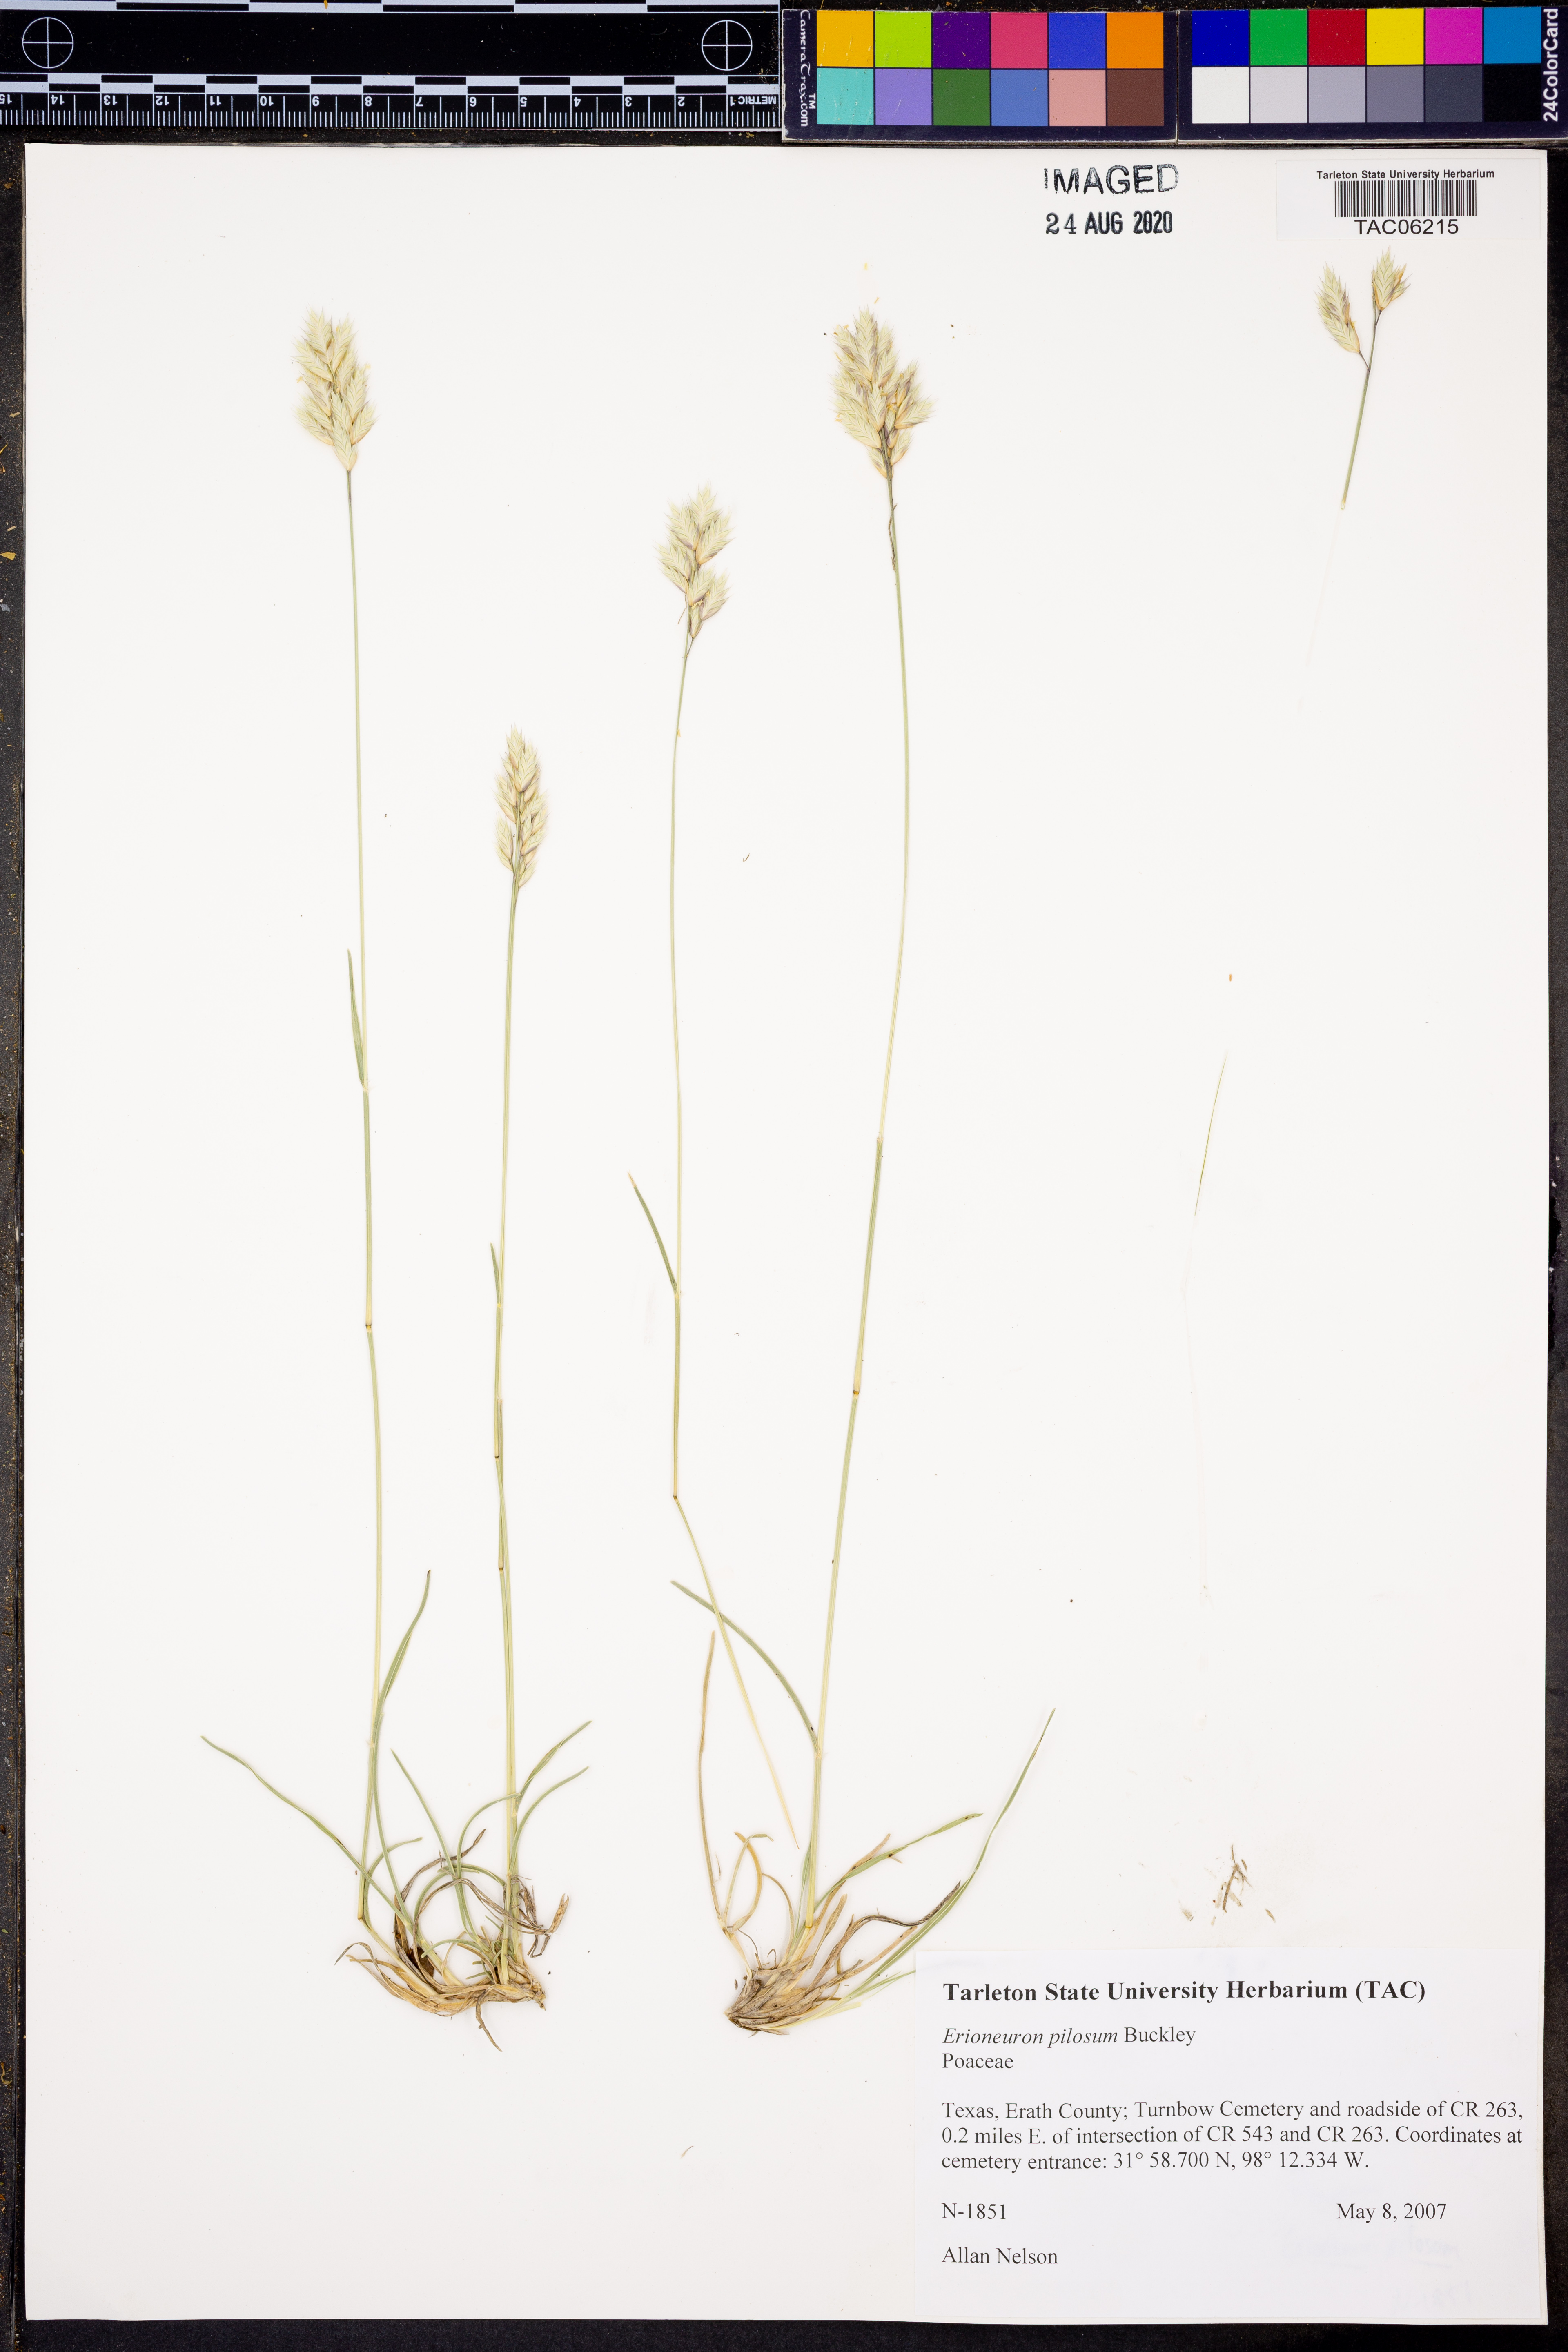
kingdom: Plantae
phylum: Tracheophyta
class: Liliopsida
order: Poales
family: Poaceae
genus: Erioneuron
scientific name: Erioneuron pilosum
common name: Hairy woolly grass
